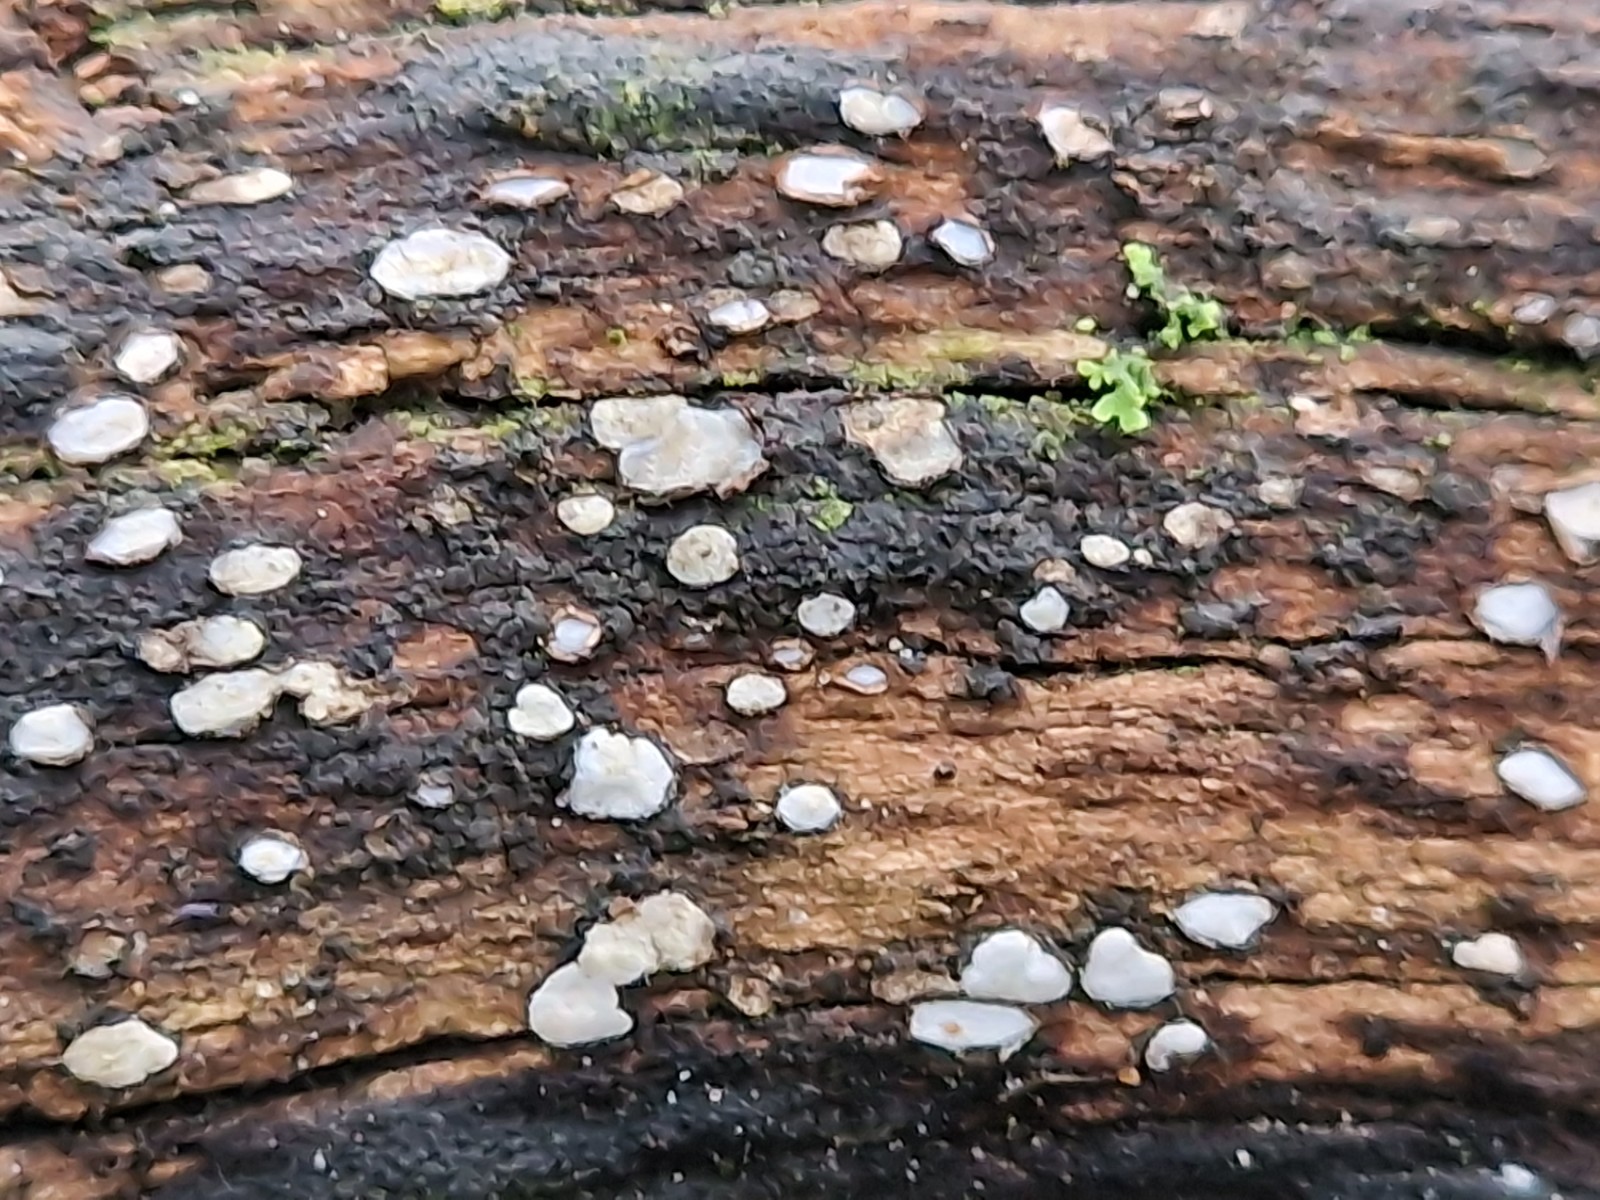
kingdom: Fungi
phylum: Ascomycota
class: Leotiomycetes
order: Chaetomellales
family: Marthamycetaceae
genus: Propolis
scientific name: Propolis farinosa
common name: almindelig vedsprængerskive
